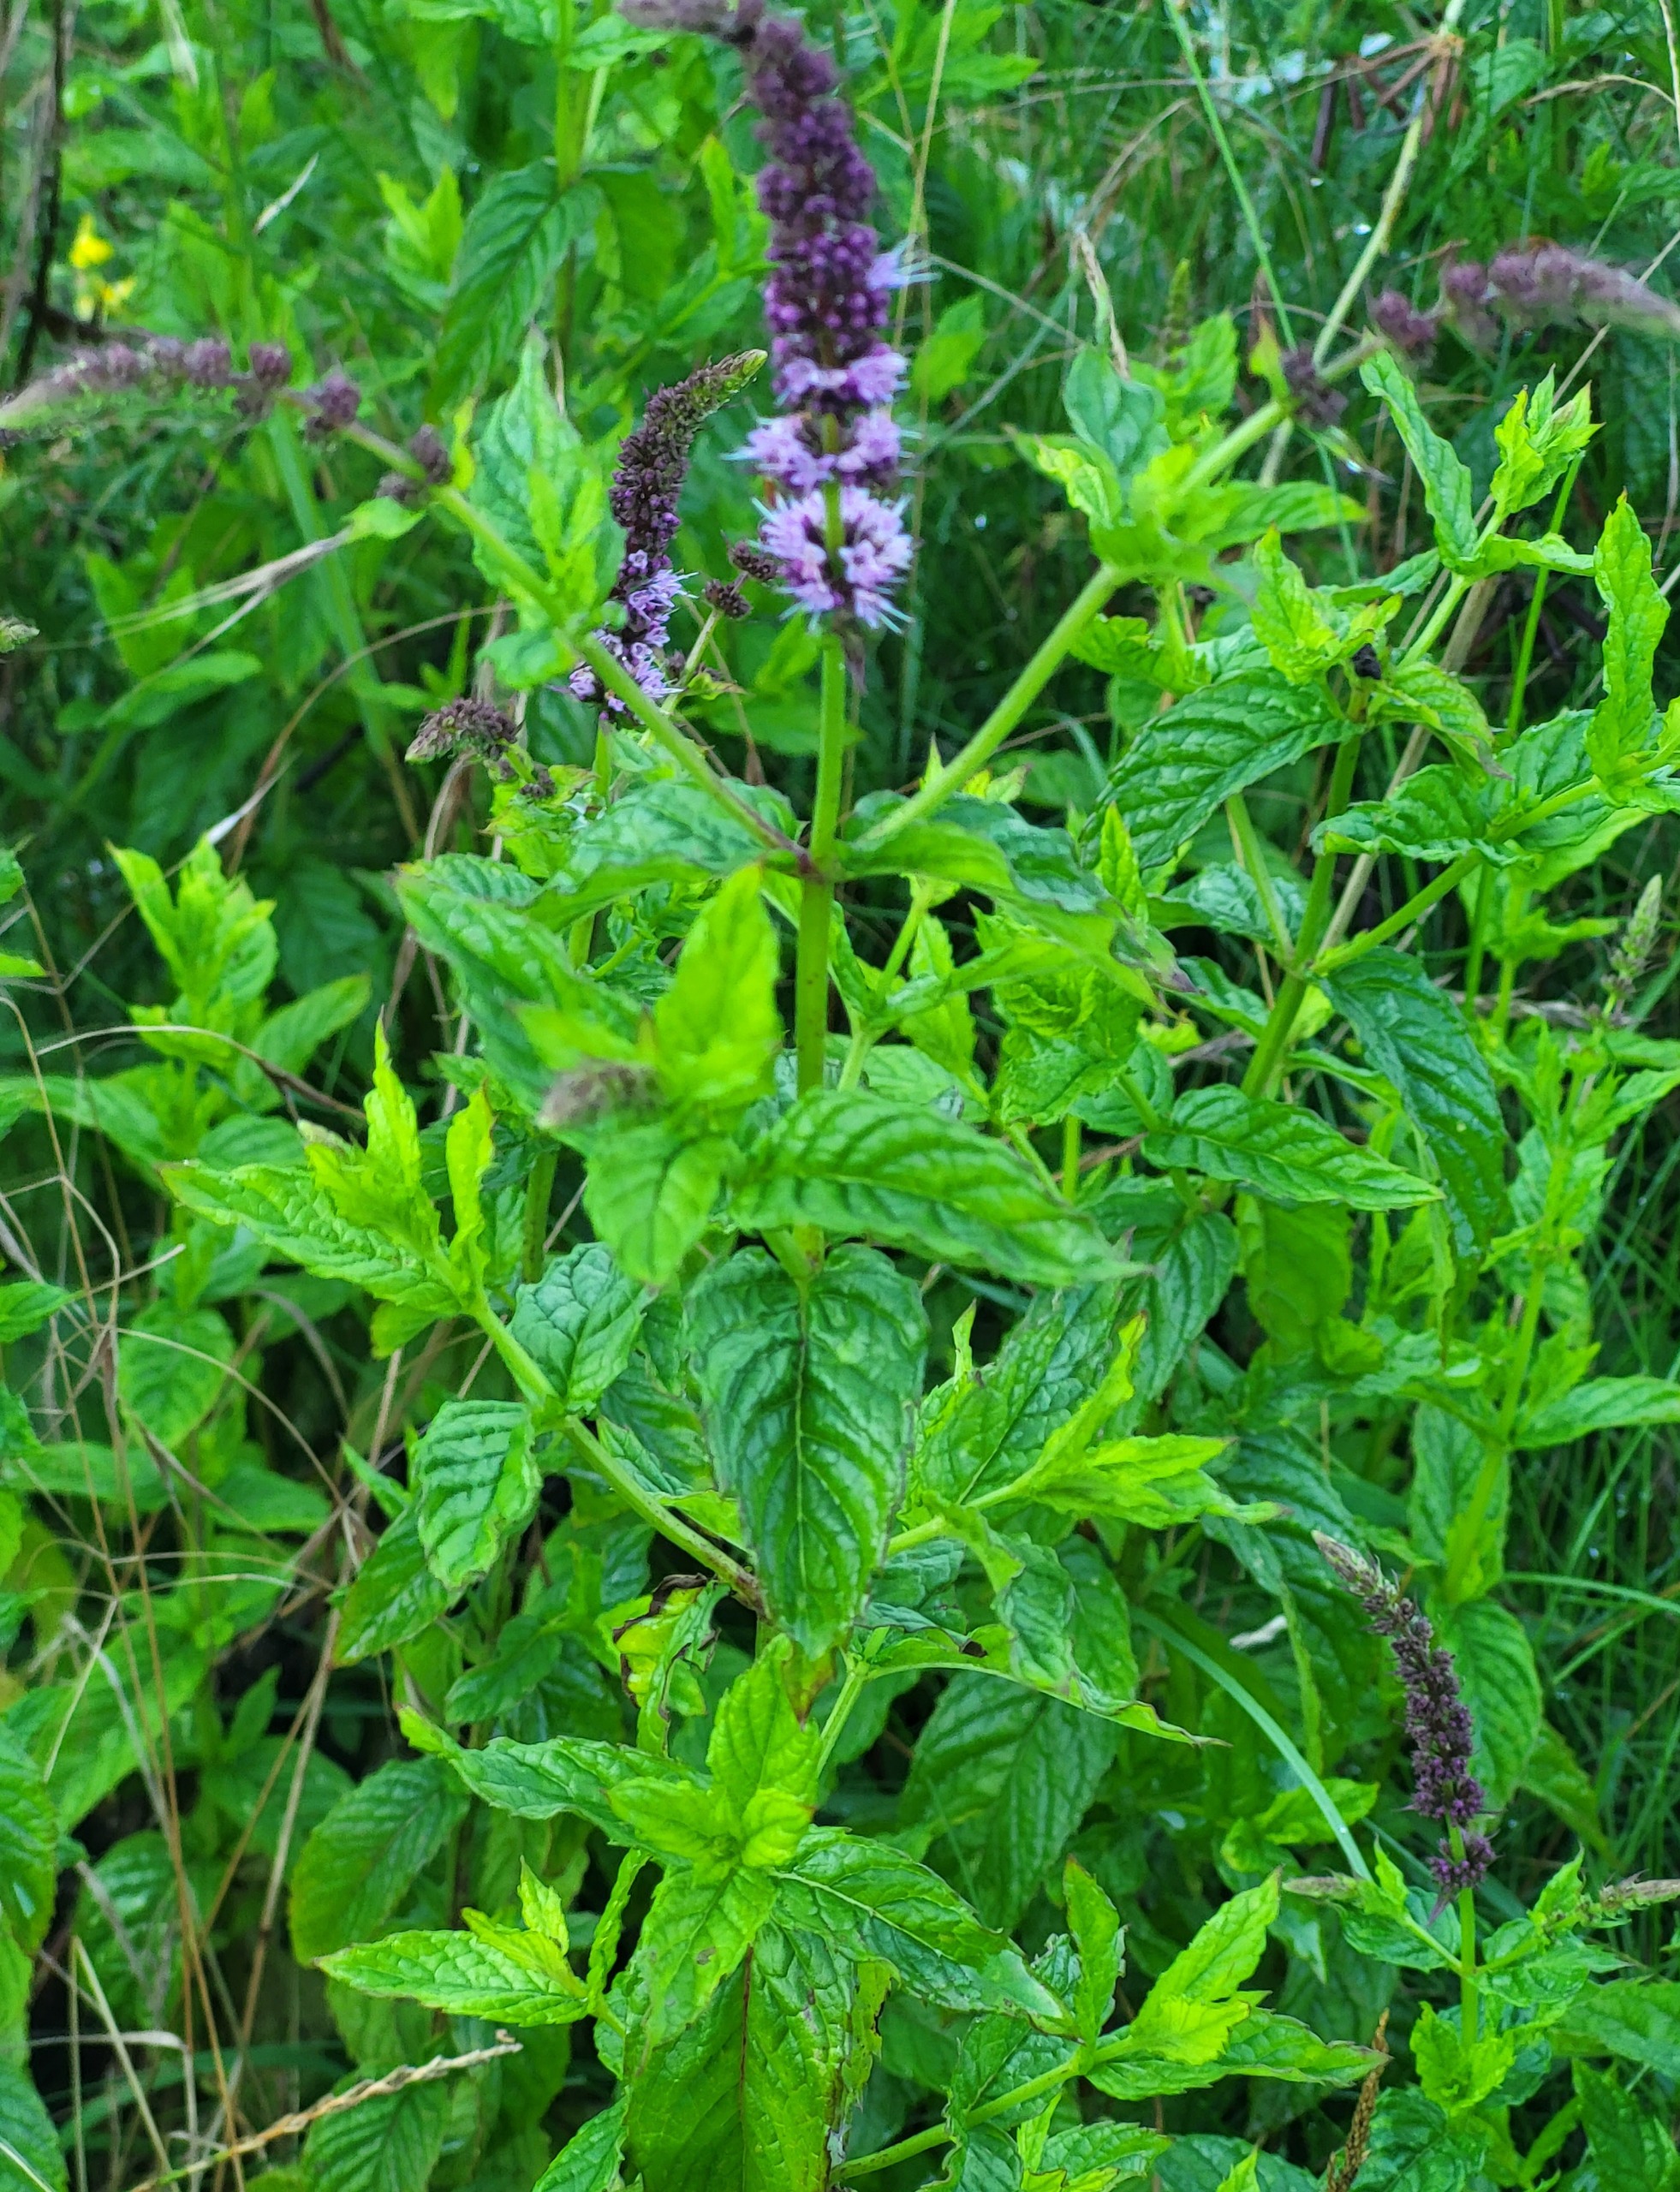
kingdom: Plantae
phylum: Tracheophyta
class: Magnoliopsida
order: Lamiales
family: Lamiaceae
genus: Mentha
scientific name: Mentha spicata
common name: Grøn mynte
